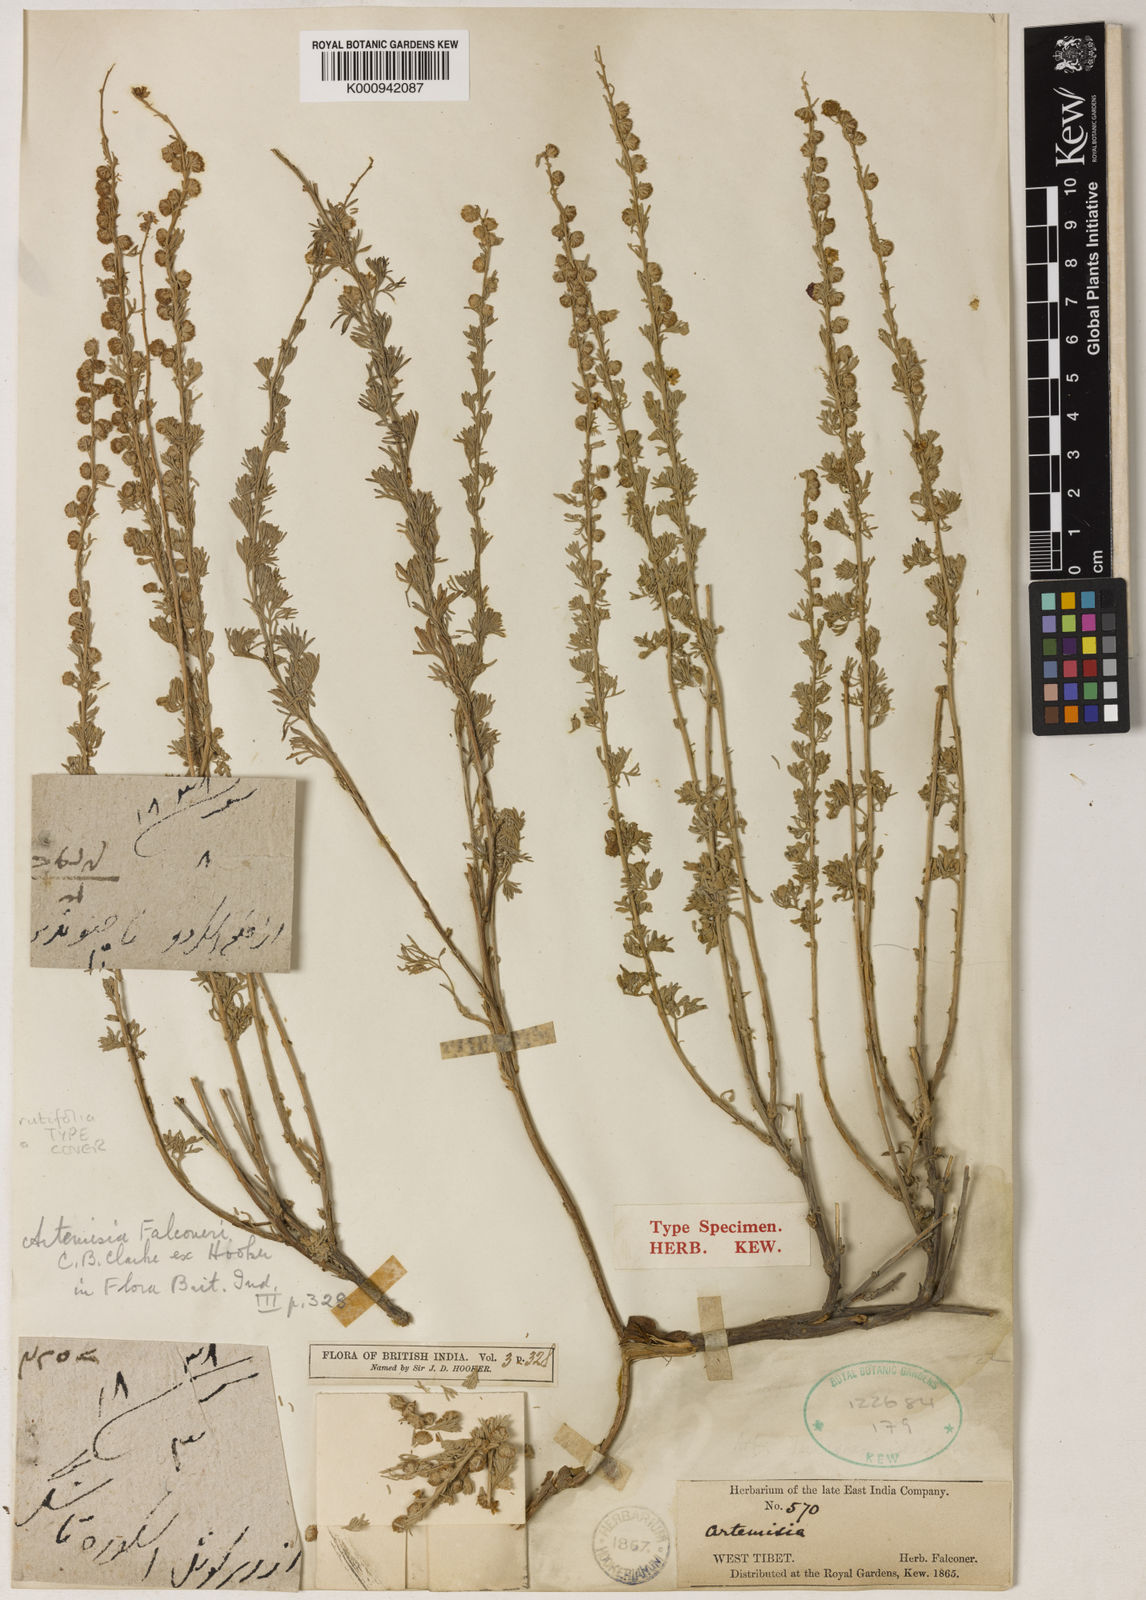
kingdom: Plantae
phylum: Tracheophyta
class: Magnoliopsida
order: Asterales
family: Asteraceae
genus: Artemisia
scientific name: Artemisia rutifolia
